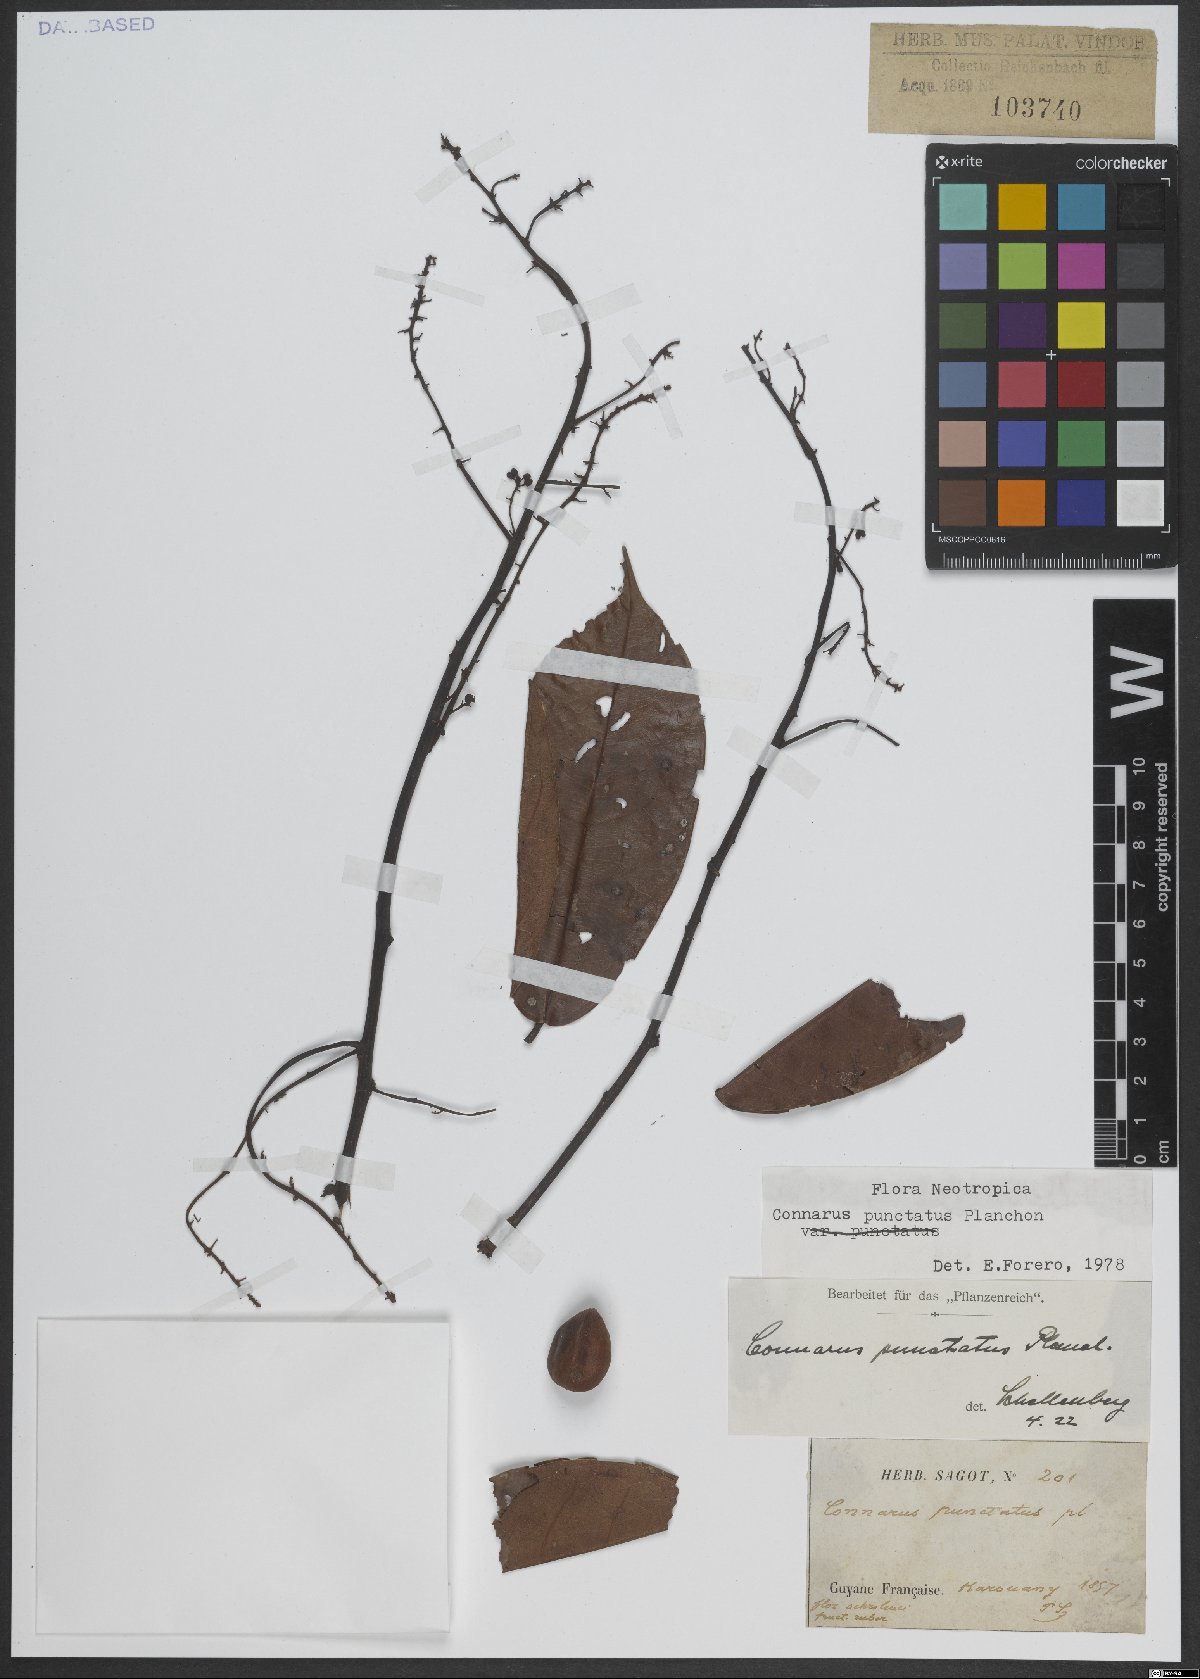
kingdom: Plantae
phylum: Tracheophyta
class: Magnoliopsida
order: Oxalidales
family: Connaraceae
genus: Connarus
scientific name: Connarus punctatus
